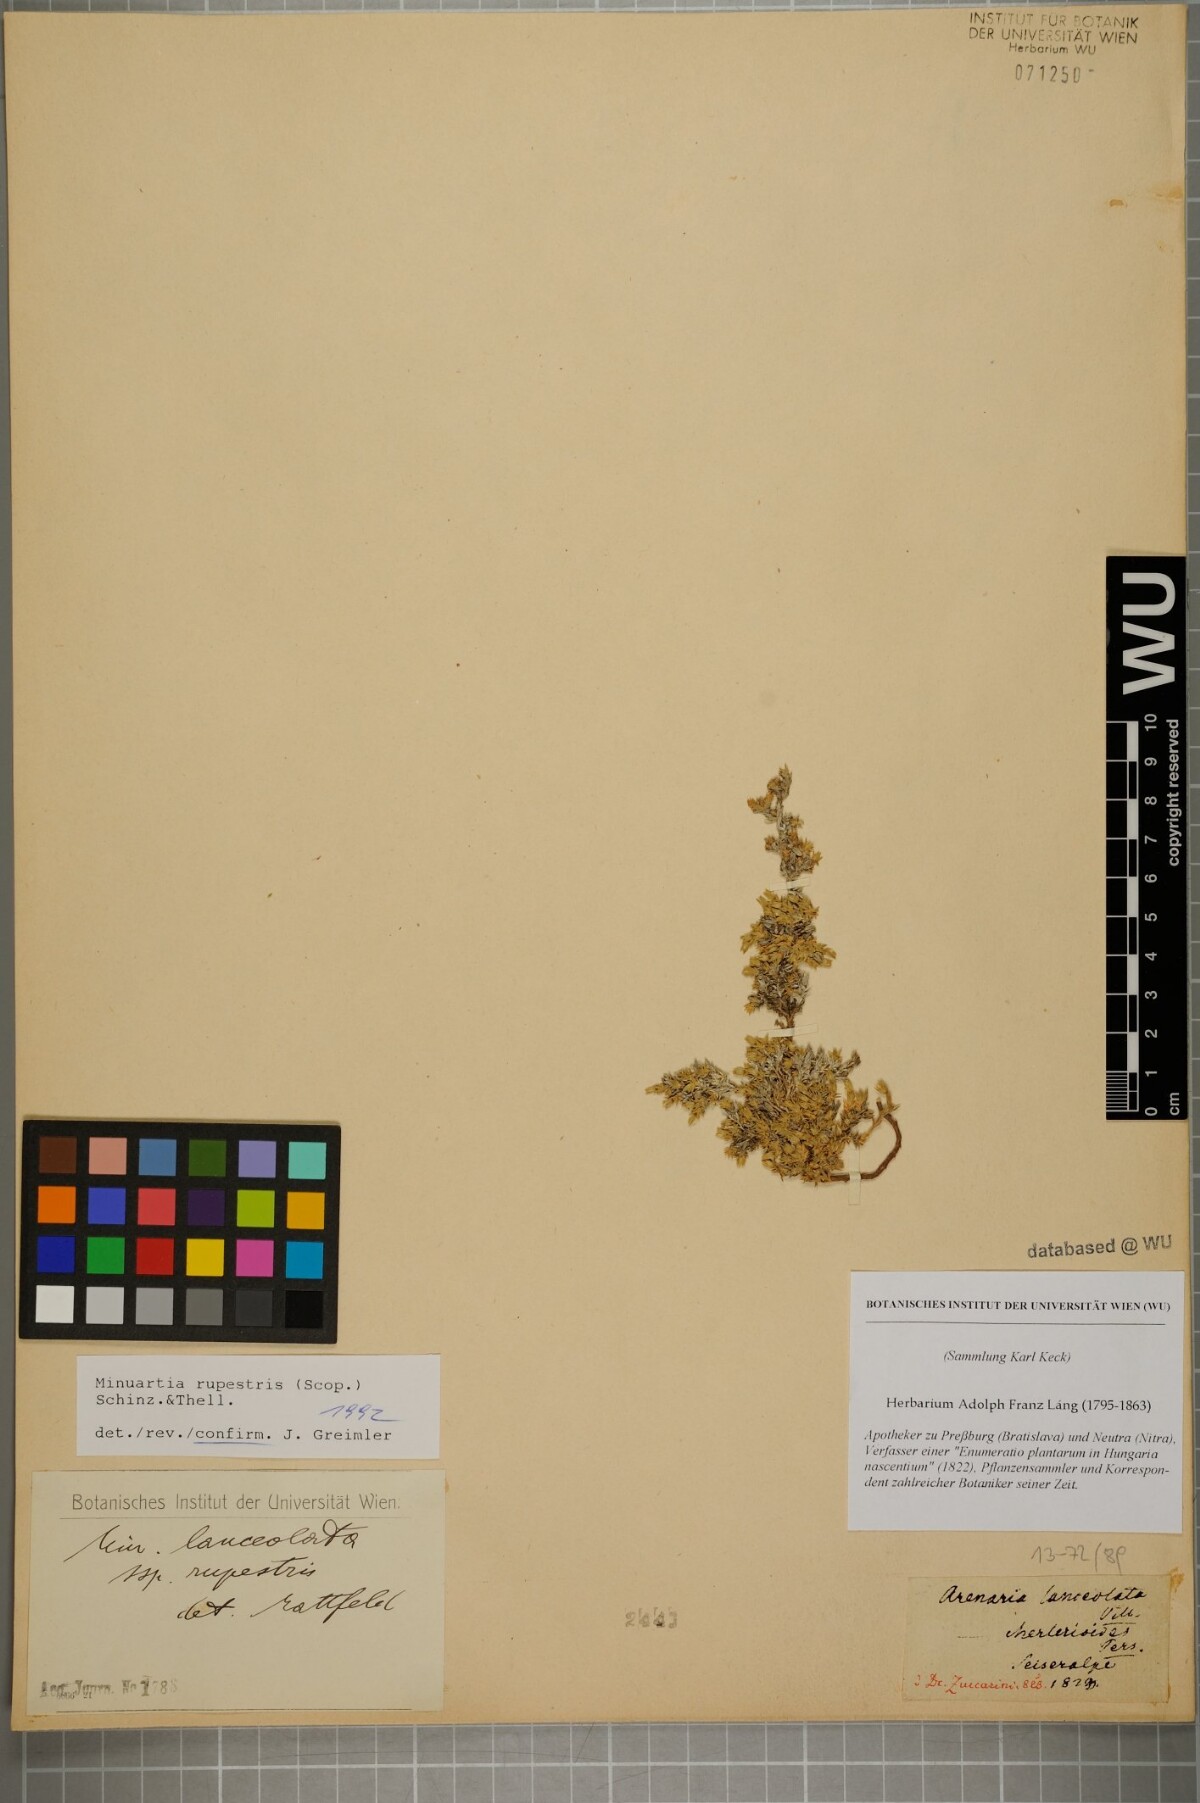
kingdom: Plantae
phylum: Tracheophyta
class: Magnoliopsida
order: Caryophyllales
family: Caryophyllaceae
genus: Facchinia
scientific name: Facchinia rupestris
